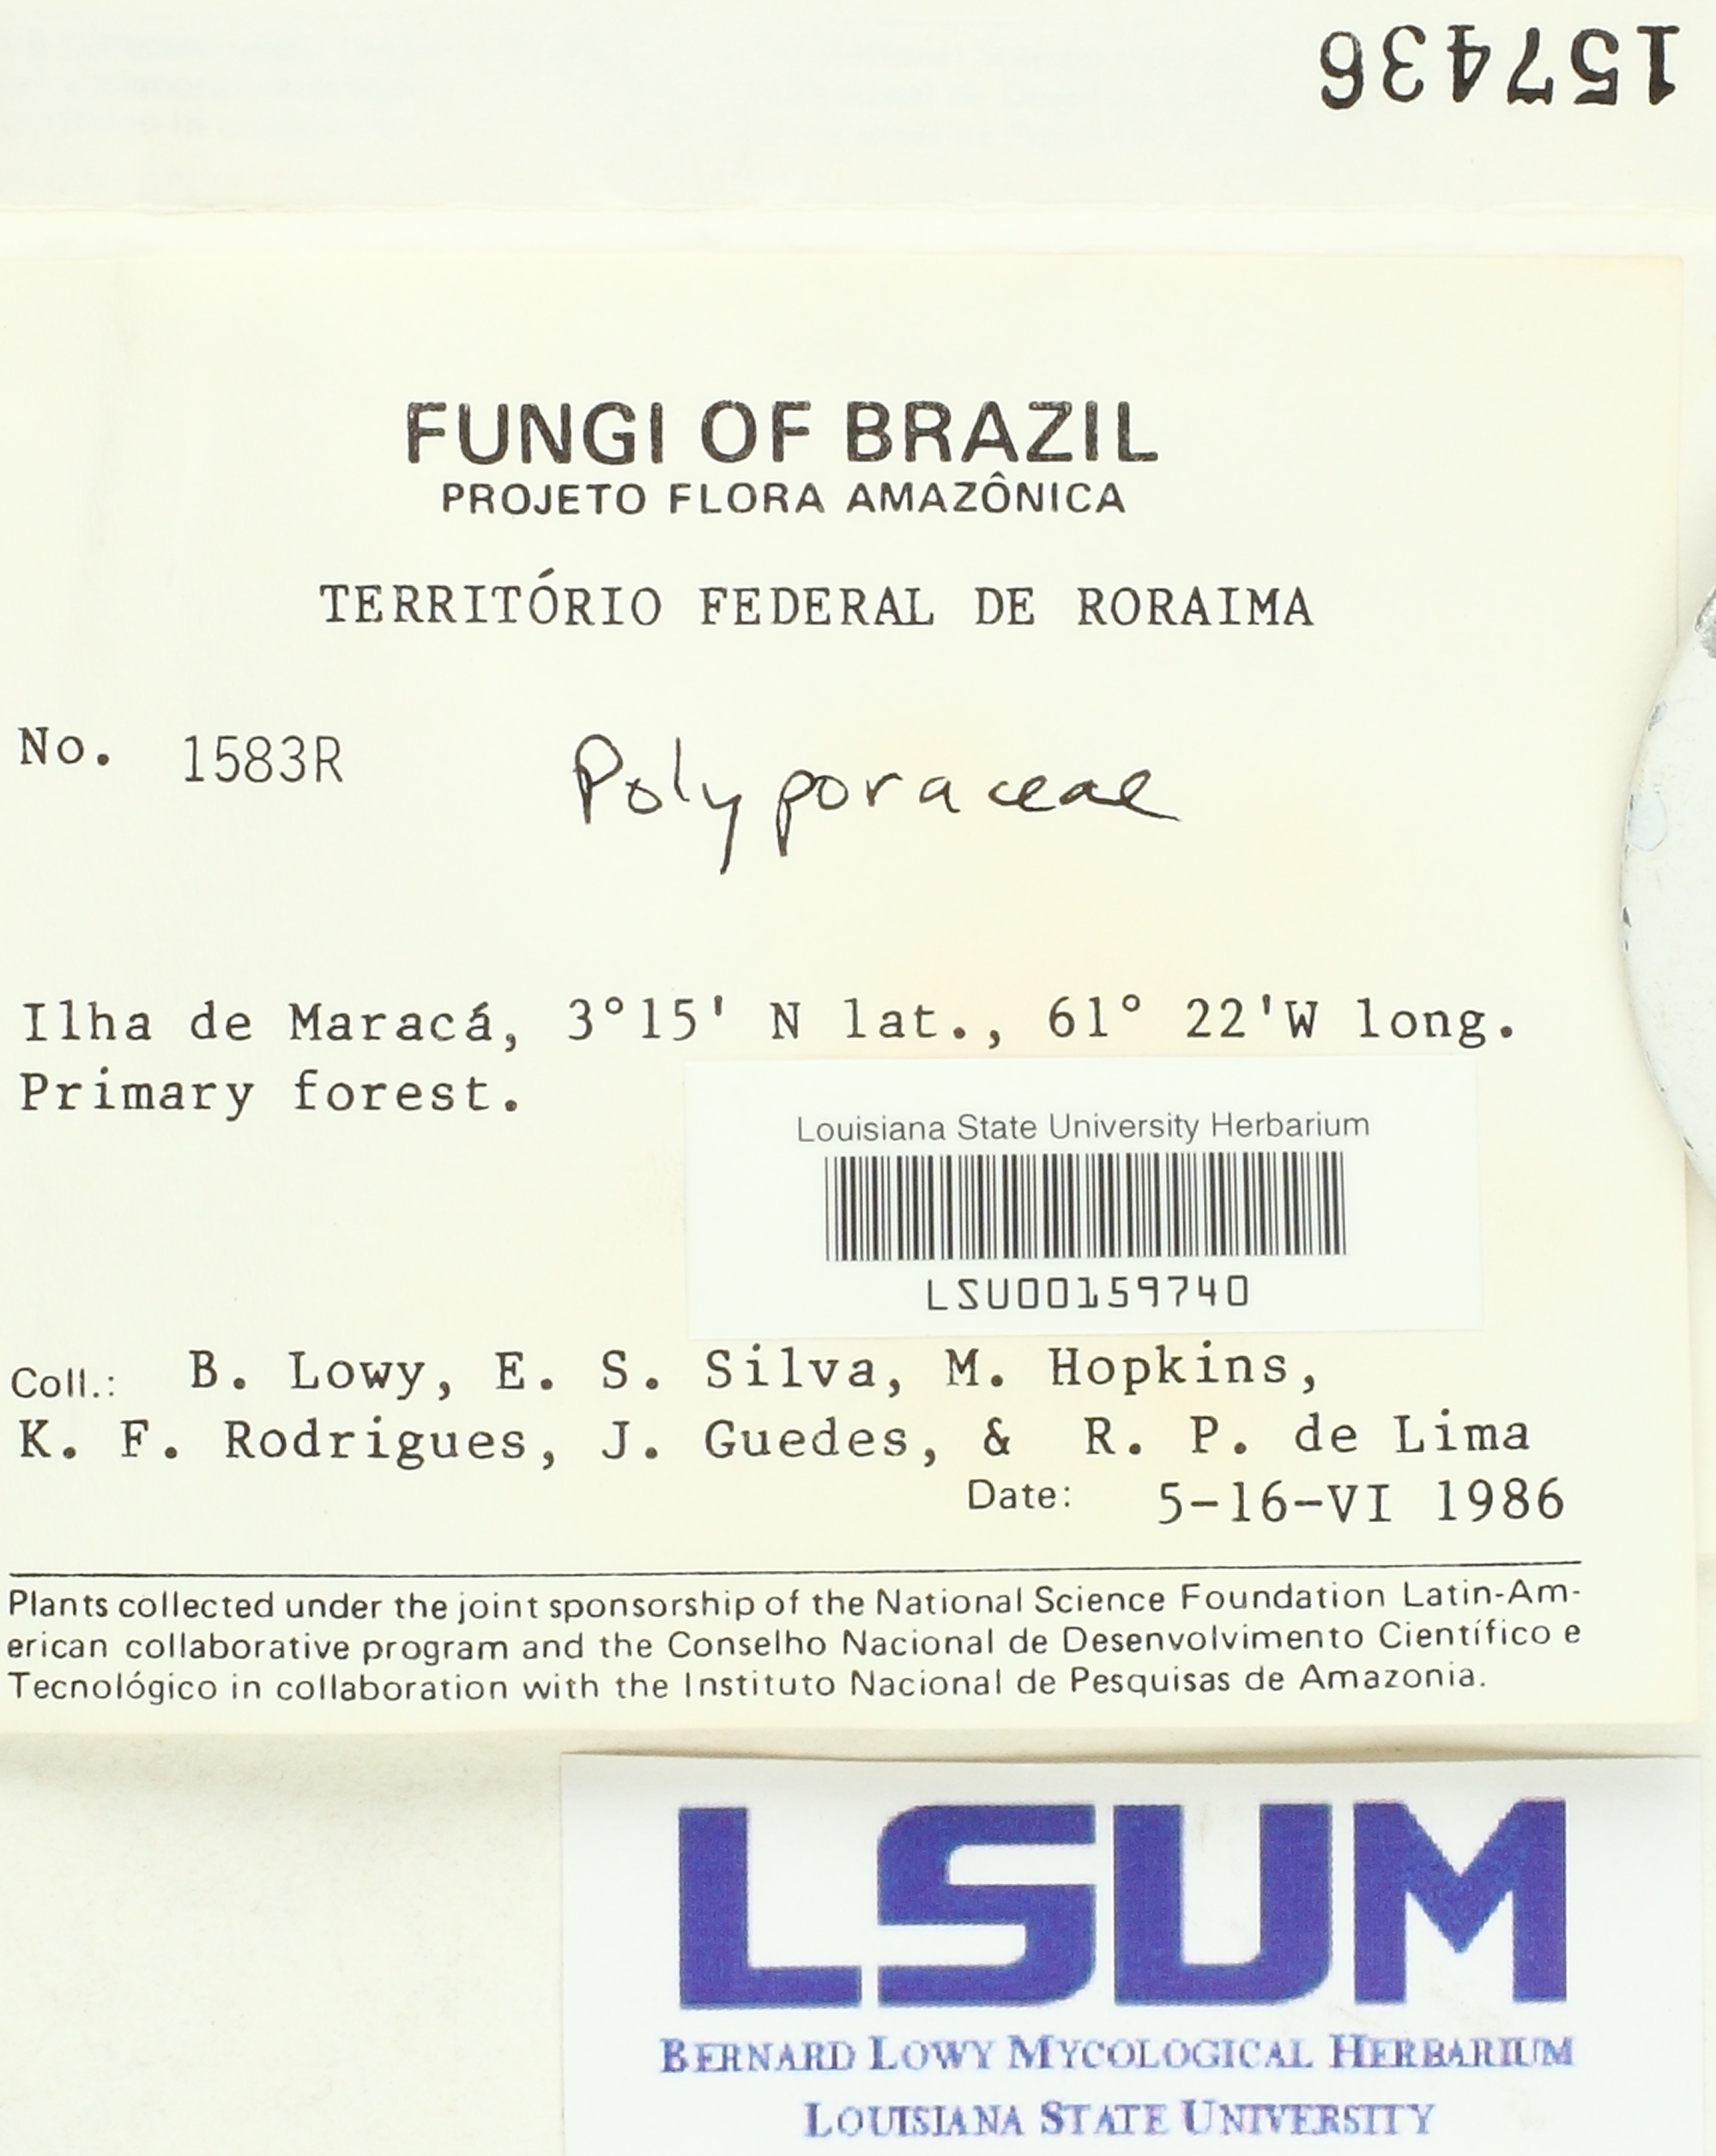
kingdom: Fungi
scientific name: Fungi
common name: Fungi
